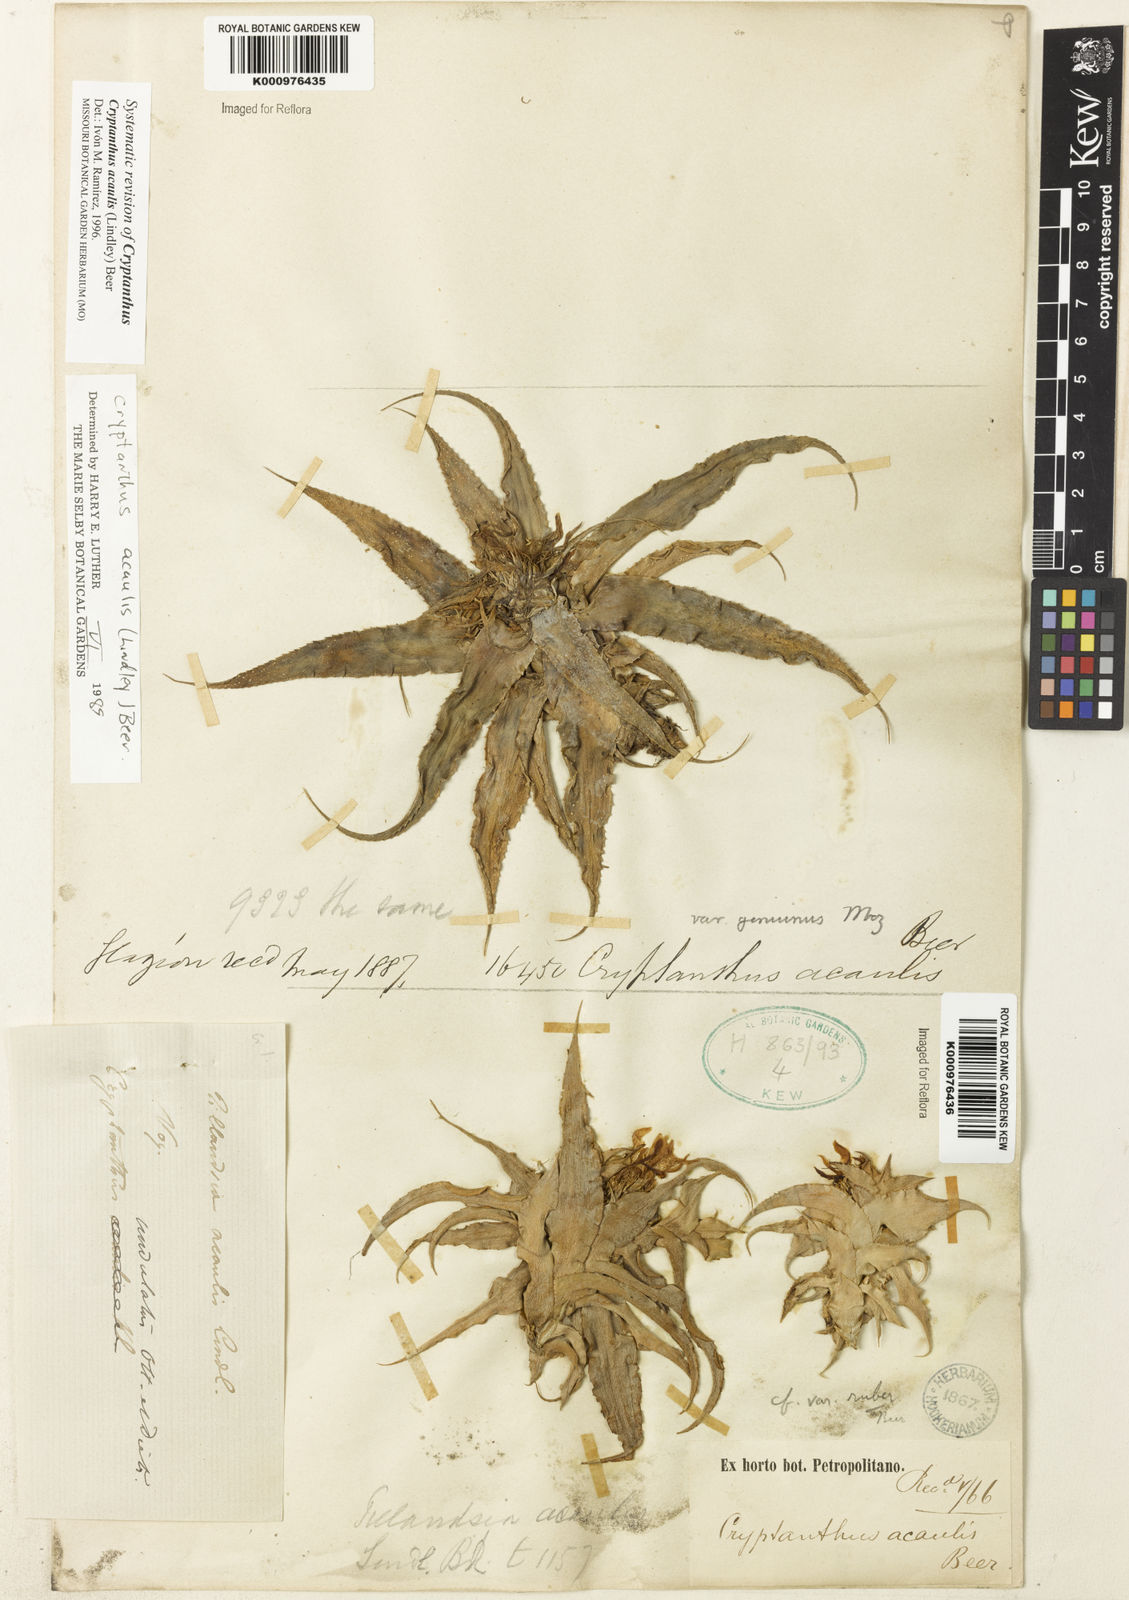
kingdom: Plantae
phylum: Tracheophyta
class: Liliopsida
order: Poales
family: Bromeliaceae
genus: Cryptanthus
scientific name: Cryptanthus acaulis
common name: Starfishplant
